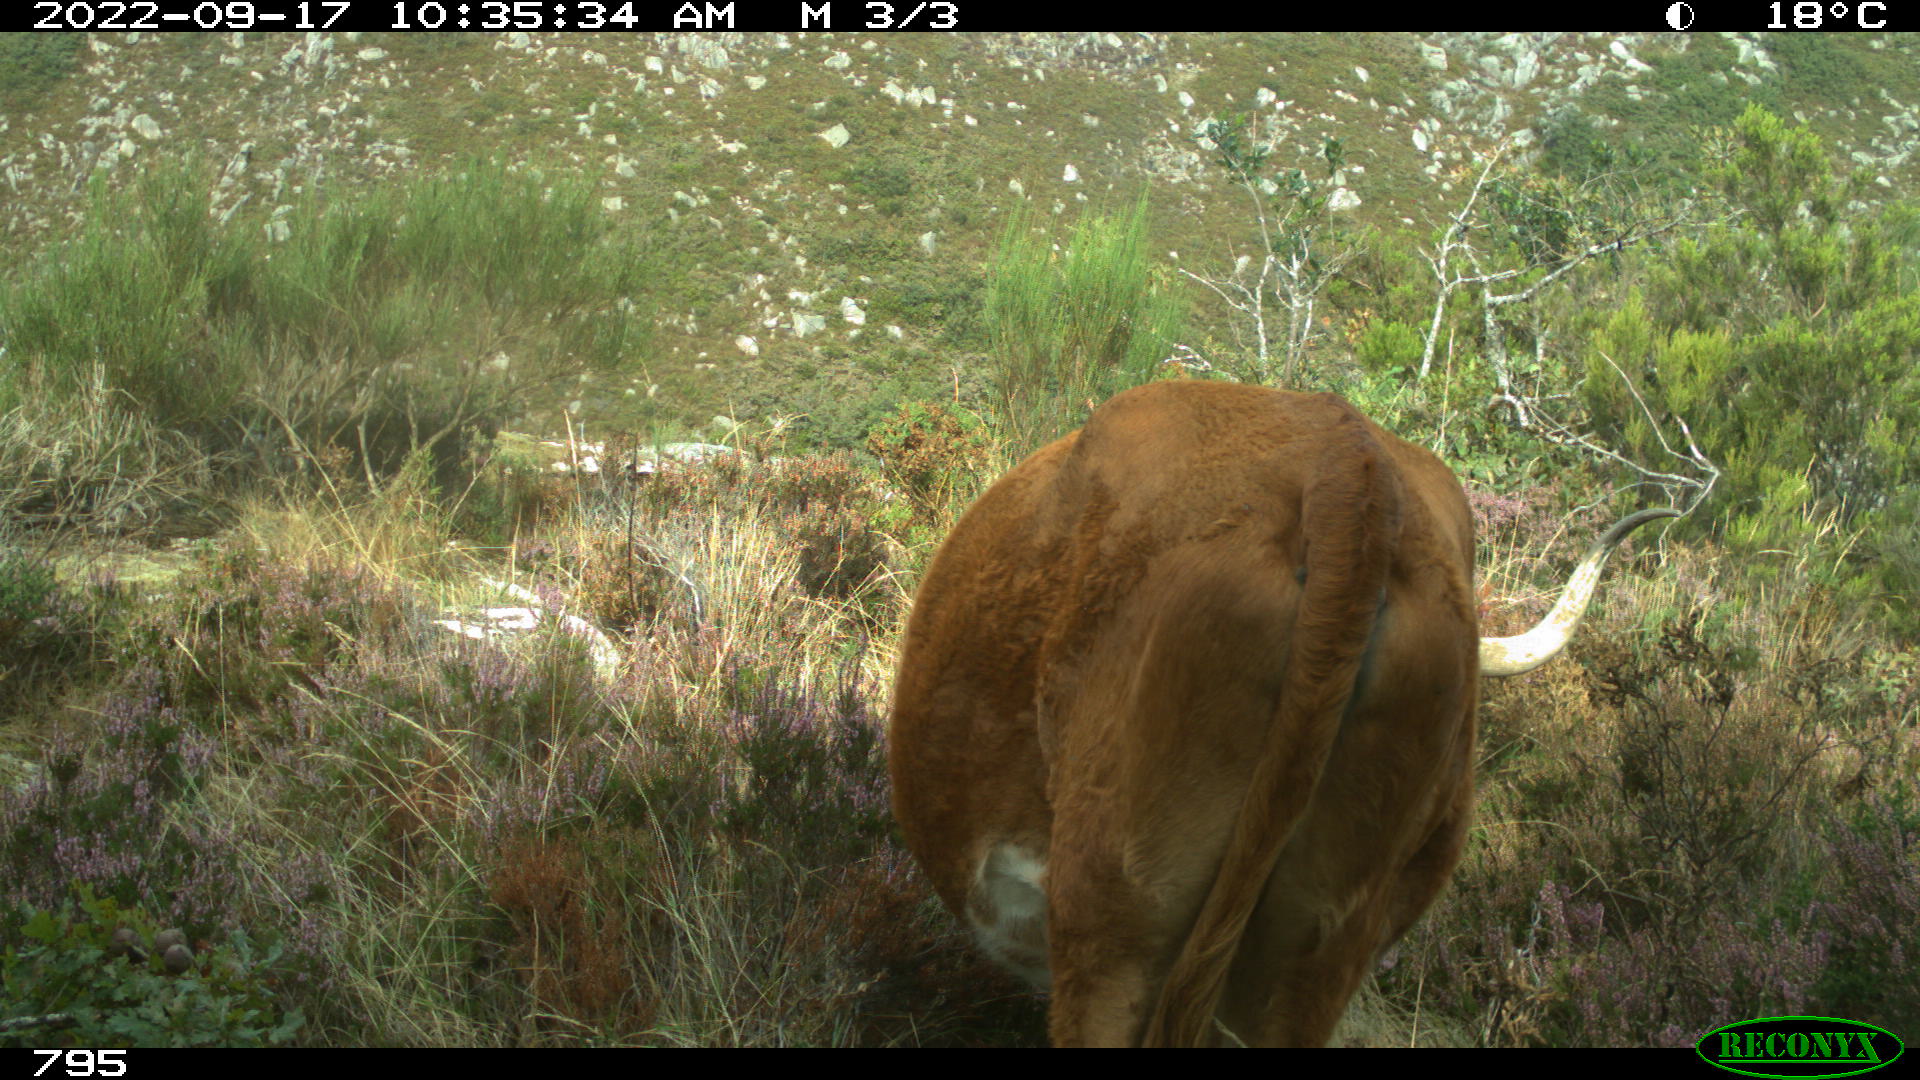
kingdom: Animalia
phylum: Chordata
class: Mammalia
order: Artiodactyla
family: Bovidae
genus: Bos
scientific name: Bos taurus
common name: Domesticated cattle
